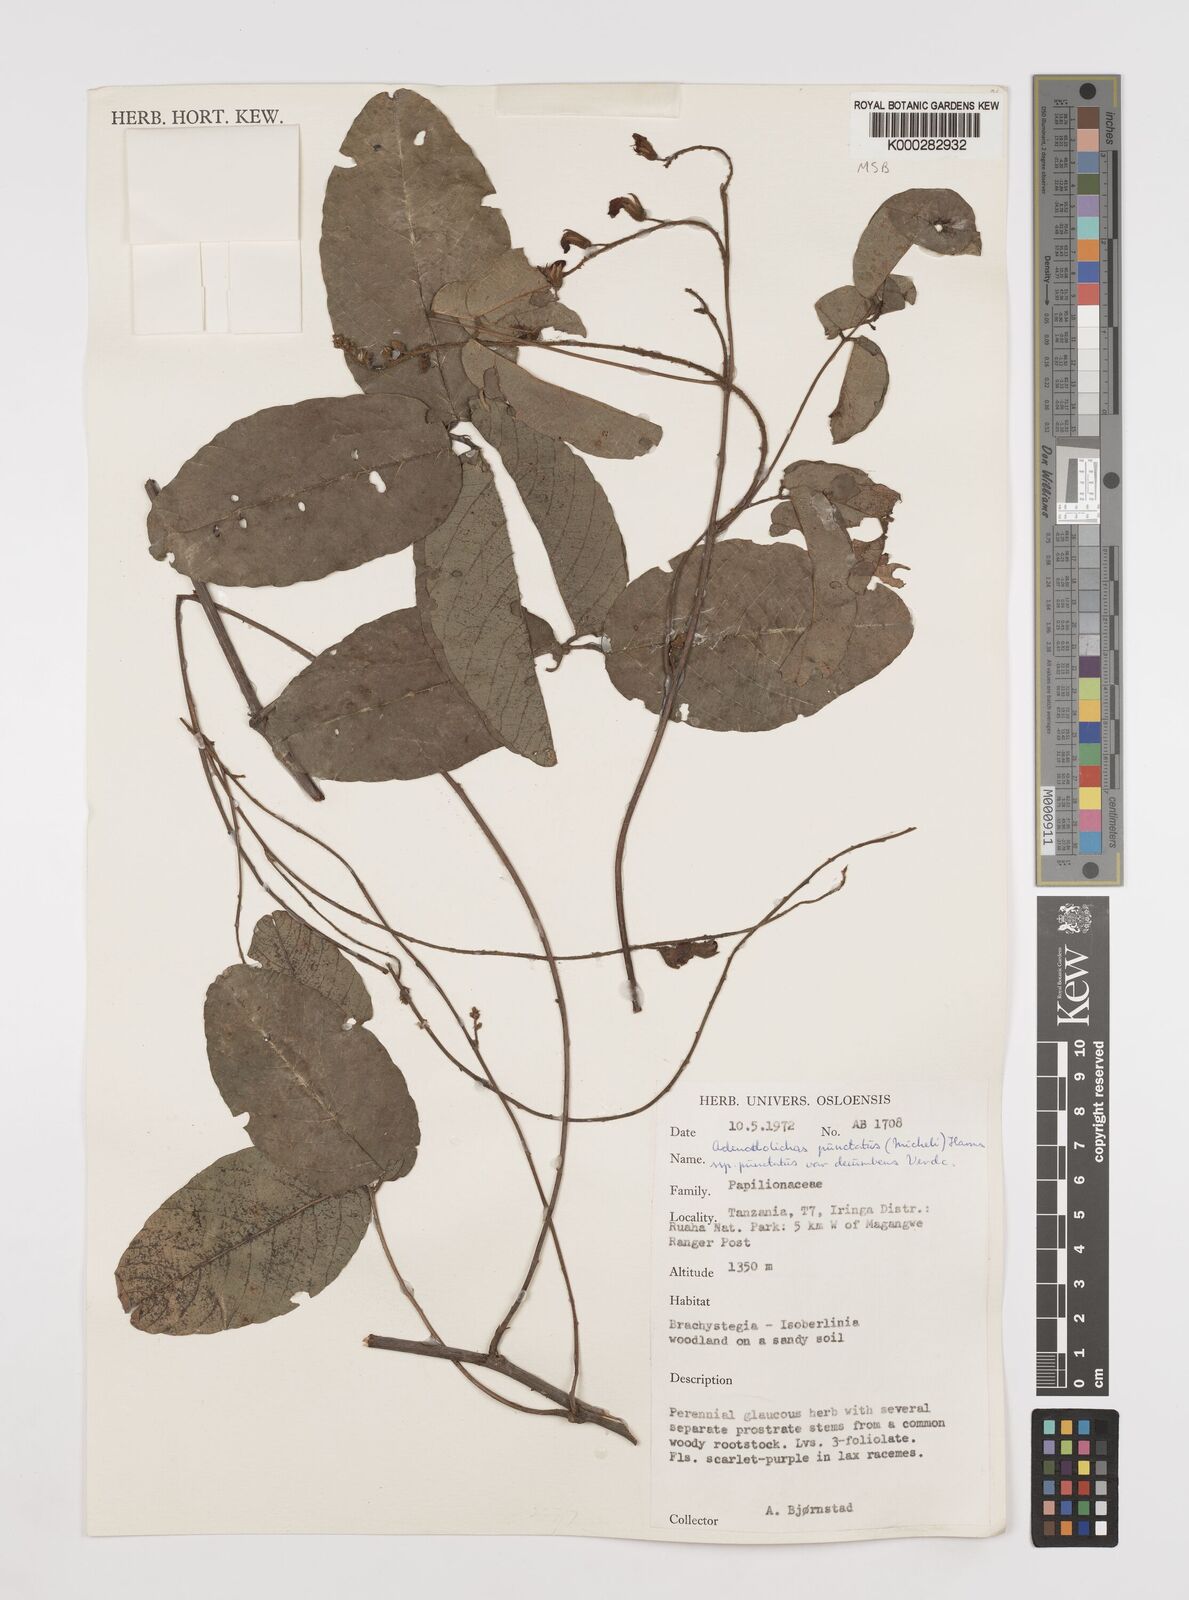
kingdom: Plantae
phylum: Tracheophyta
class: Magnoliopsida
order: Fabales
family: Fabaceae
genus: Adenodolichos
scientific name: Adenodolichos punctatus
